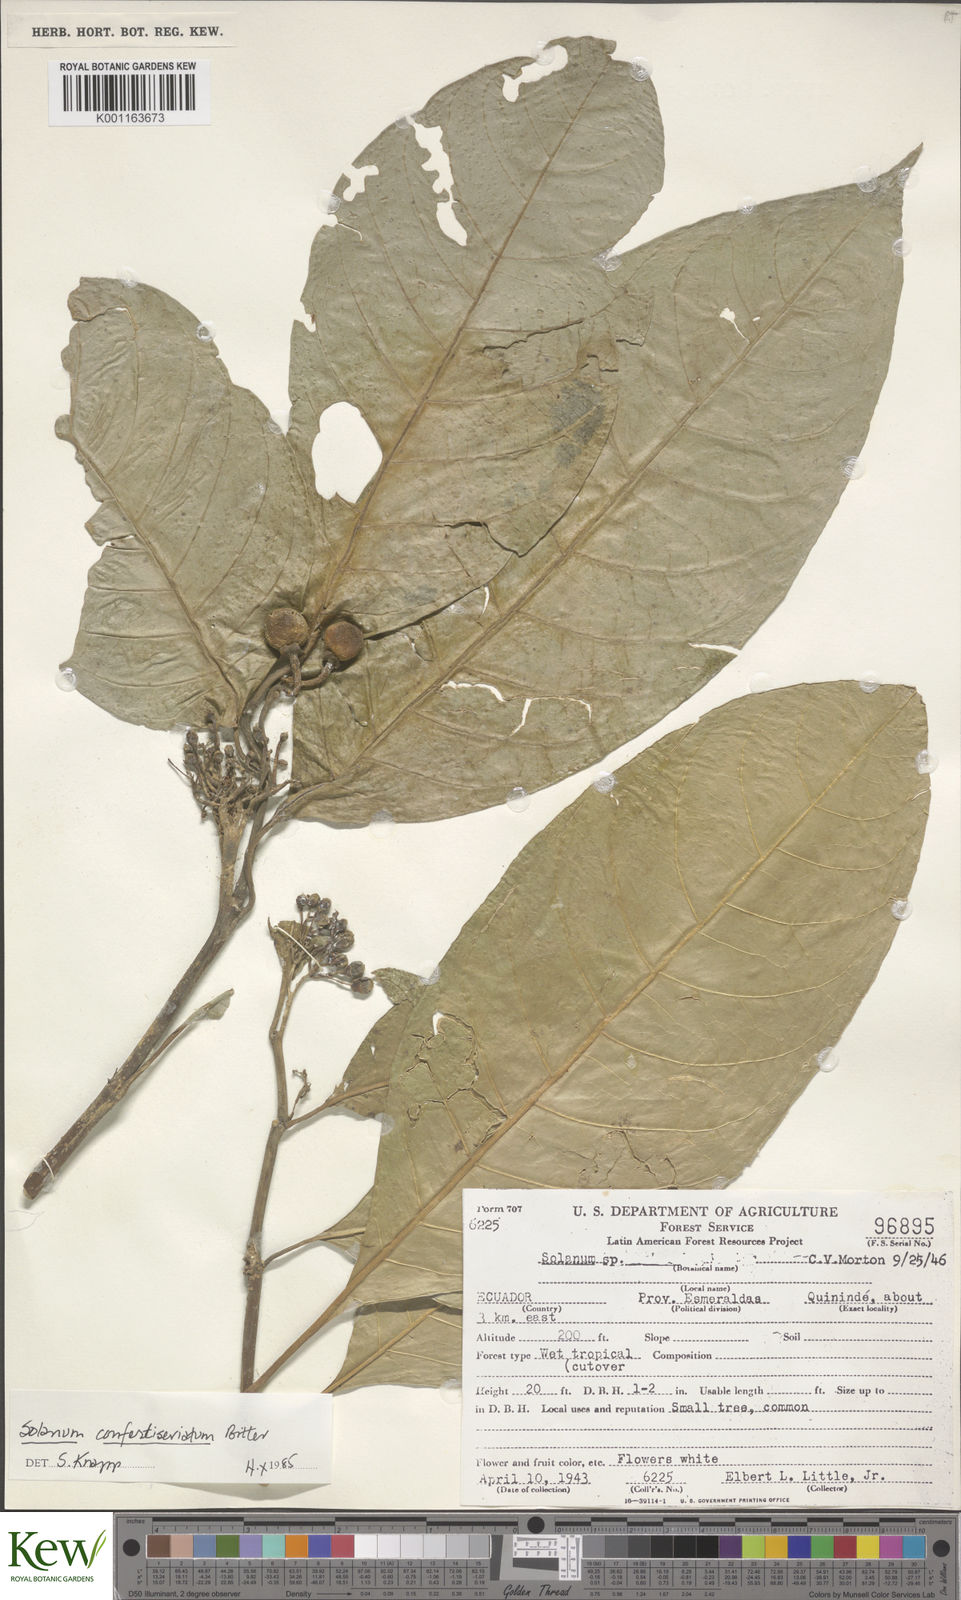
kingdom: Plantae
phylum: Tracheophyta
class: Magnoliopsida
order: Solanales
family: Solanaceae
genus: Solanum
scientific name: Solanum confertiseriatum
